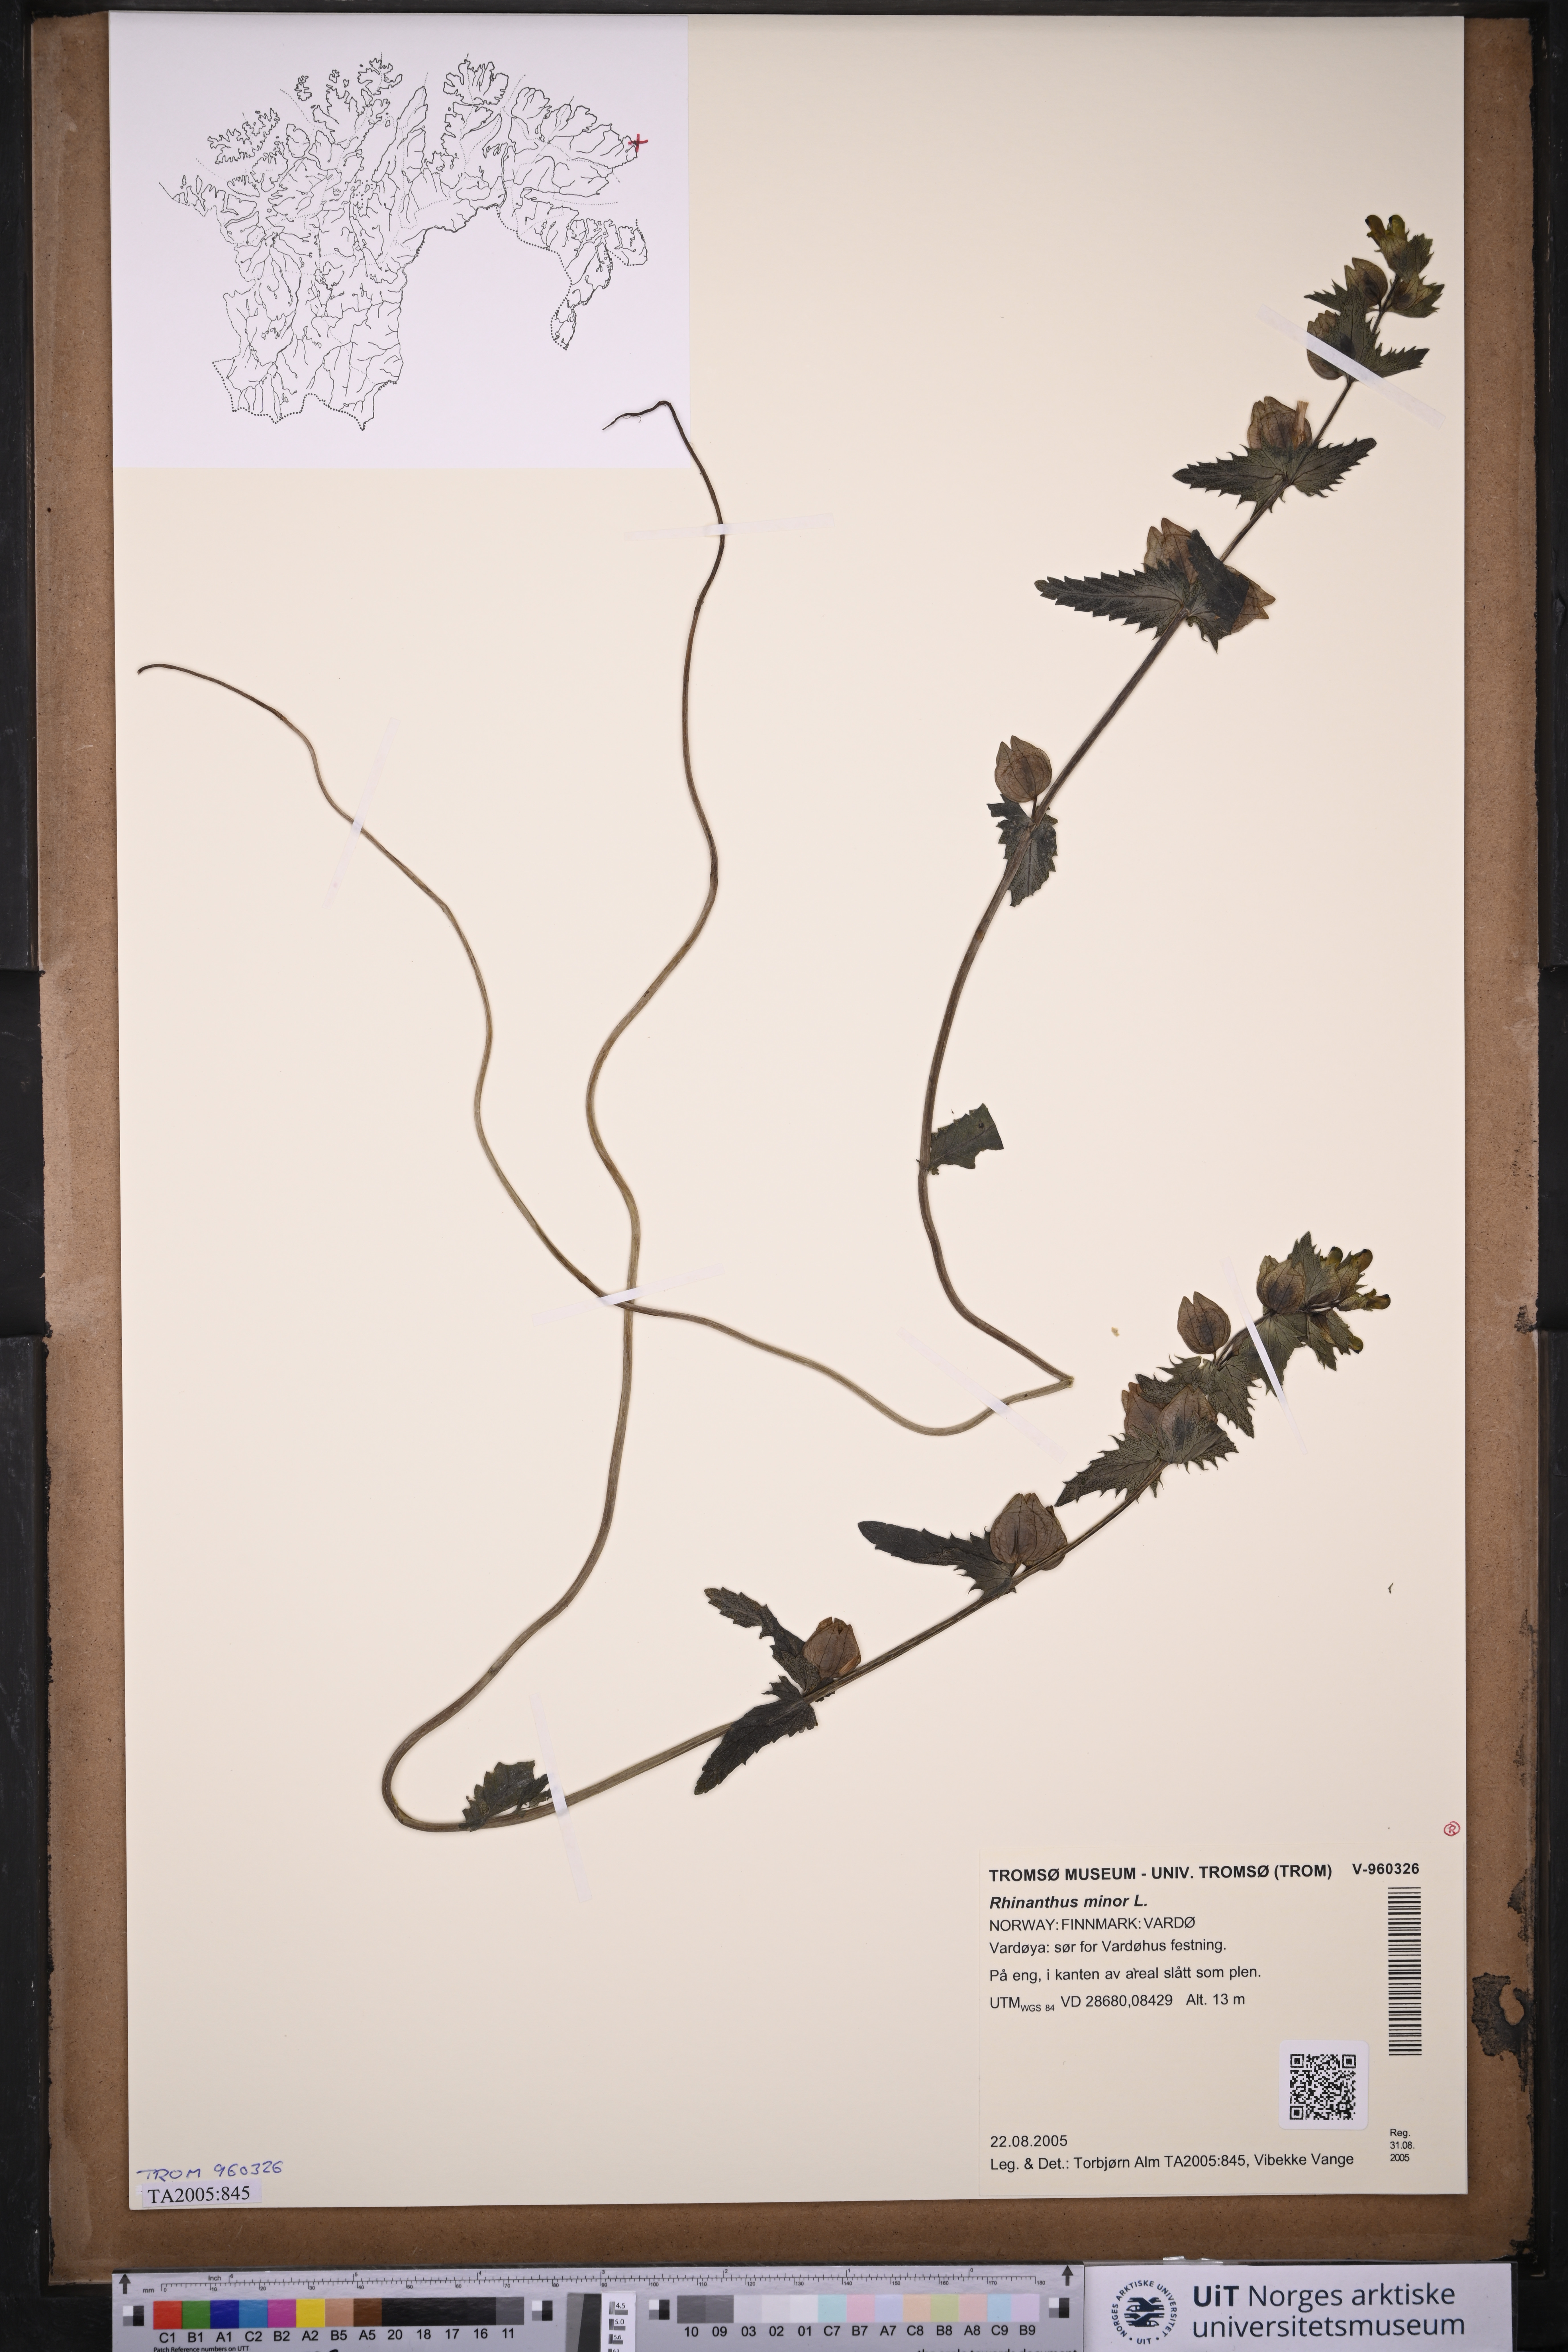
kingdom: Plantae
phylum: Tracheophyta
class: Magnoliopsida
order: Lamiales
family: Orobanchaceae
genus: Rhinanthus
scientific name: Rhinanthus minor
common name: Yellow-rattle
